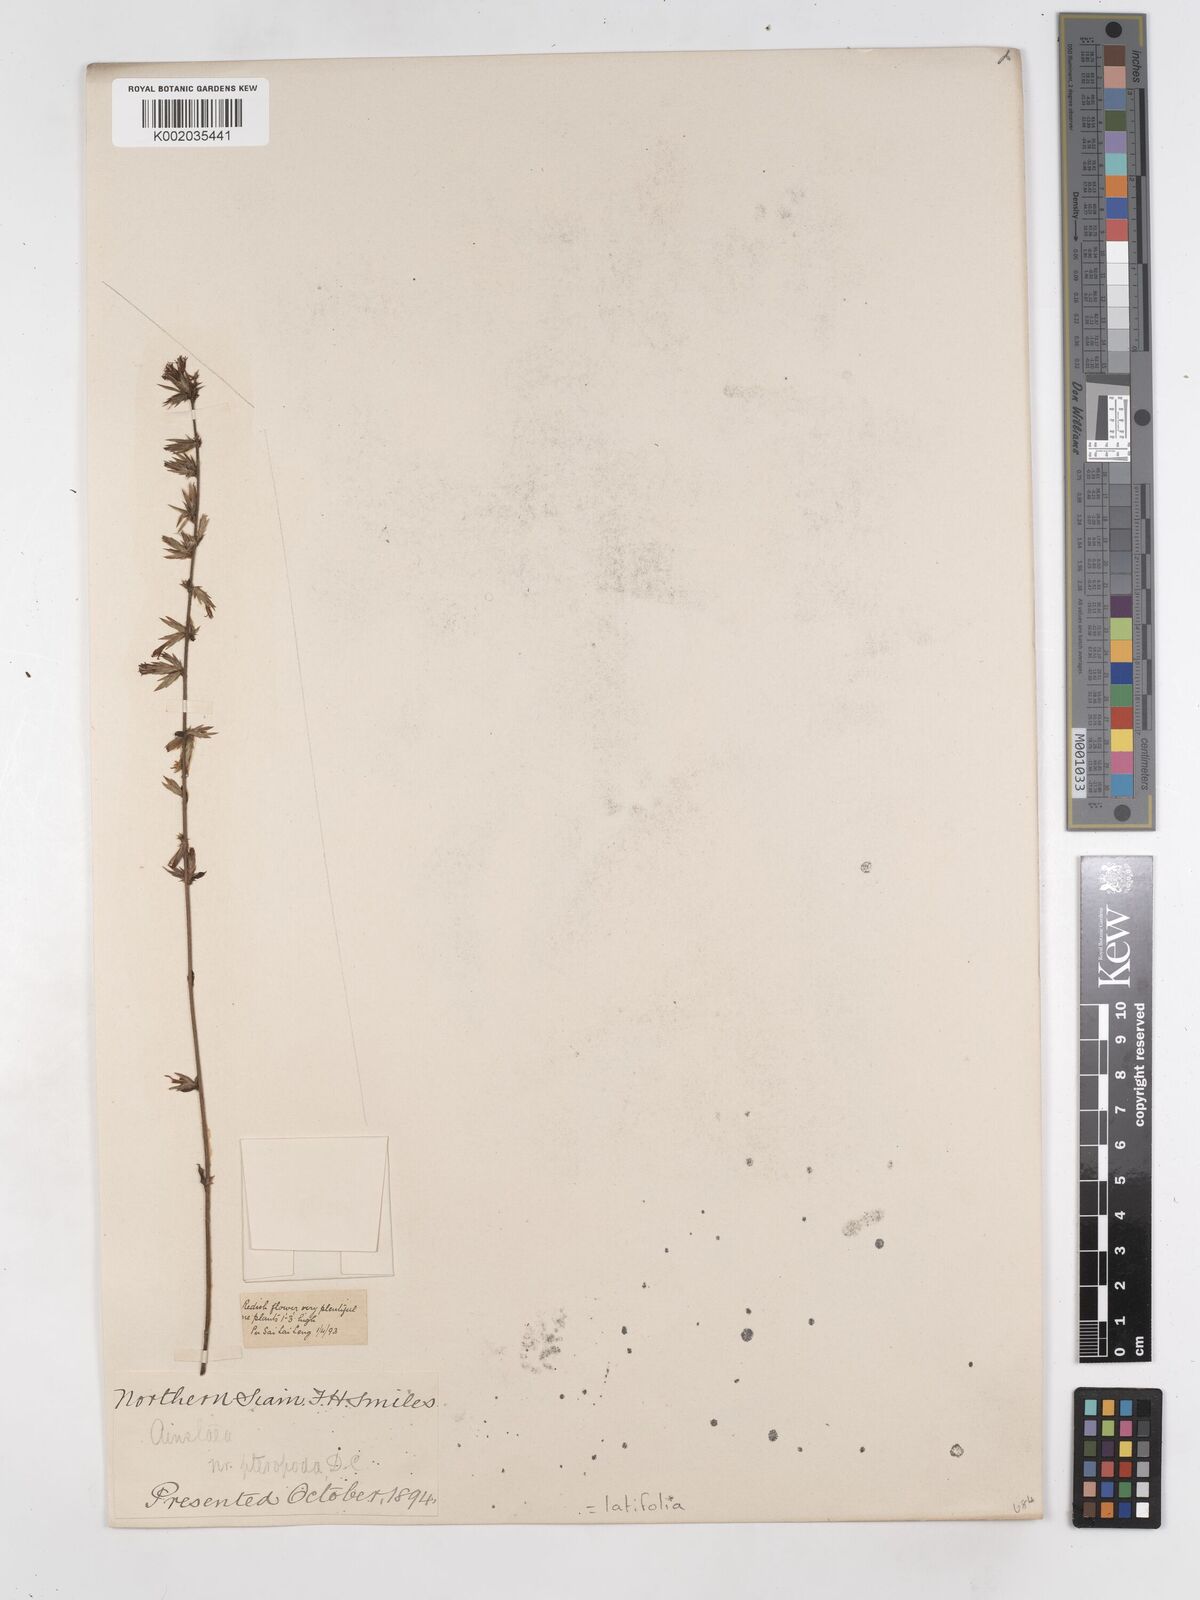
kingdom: Plantae
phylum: Tracheophyta
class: Magnoliopsida
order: Asterales
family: Asteraceae
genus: Ainsliaea
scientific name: Ainsliaea latifolia
